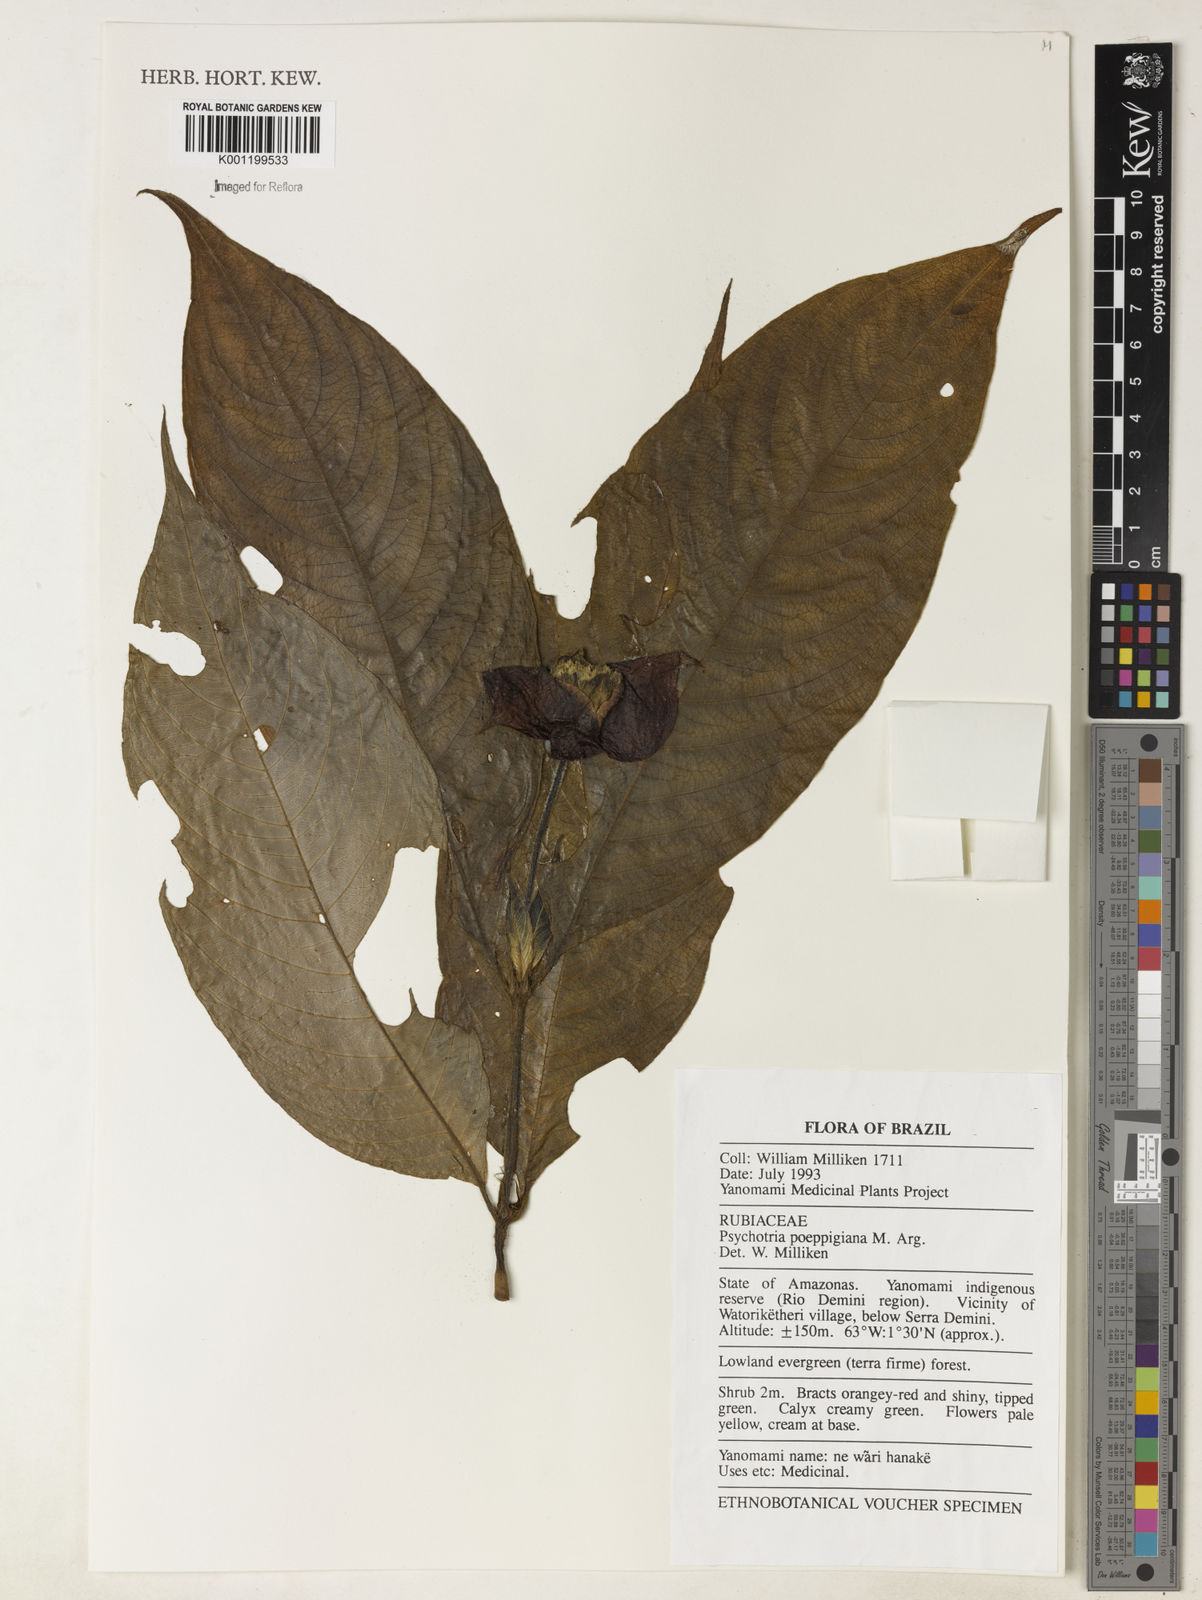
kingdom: Plantae
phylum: Tracheophyta
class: Magnoliopsida
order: Gentianales
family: Rubiaceae
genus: Psychotria
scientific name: Psychotria
